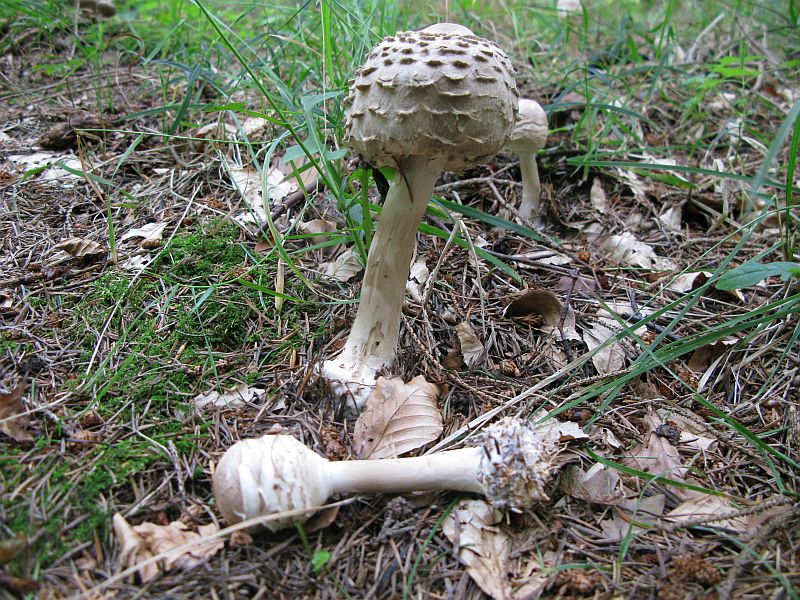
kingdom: Fungi
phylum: Basidiomycota
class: Agaricomycetes
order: Agaricales
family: Agaricaceae
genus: Chlorophyllum
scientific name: Chlorophyllum olivieri
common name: almindelig rabarberhat
